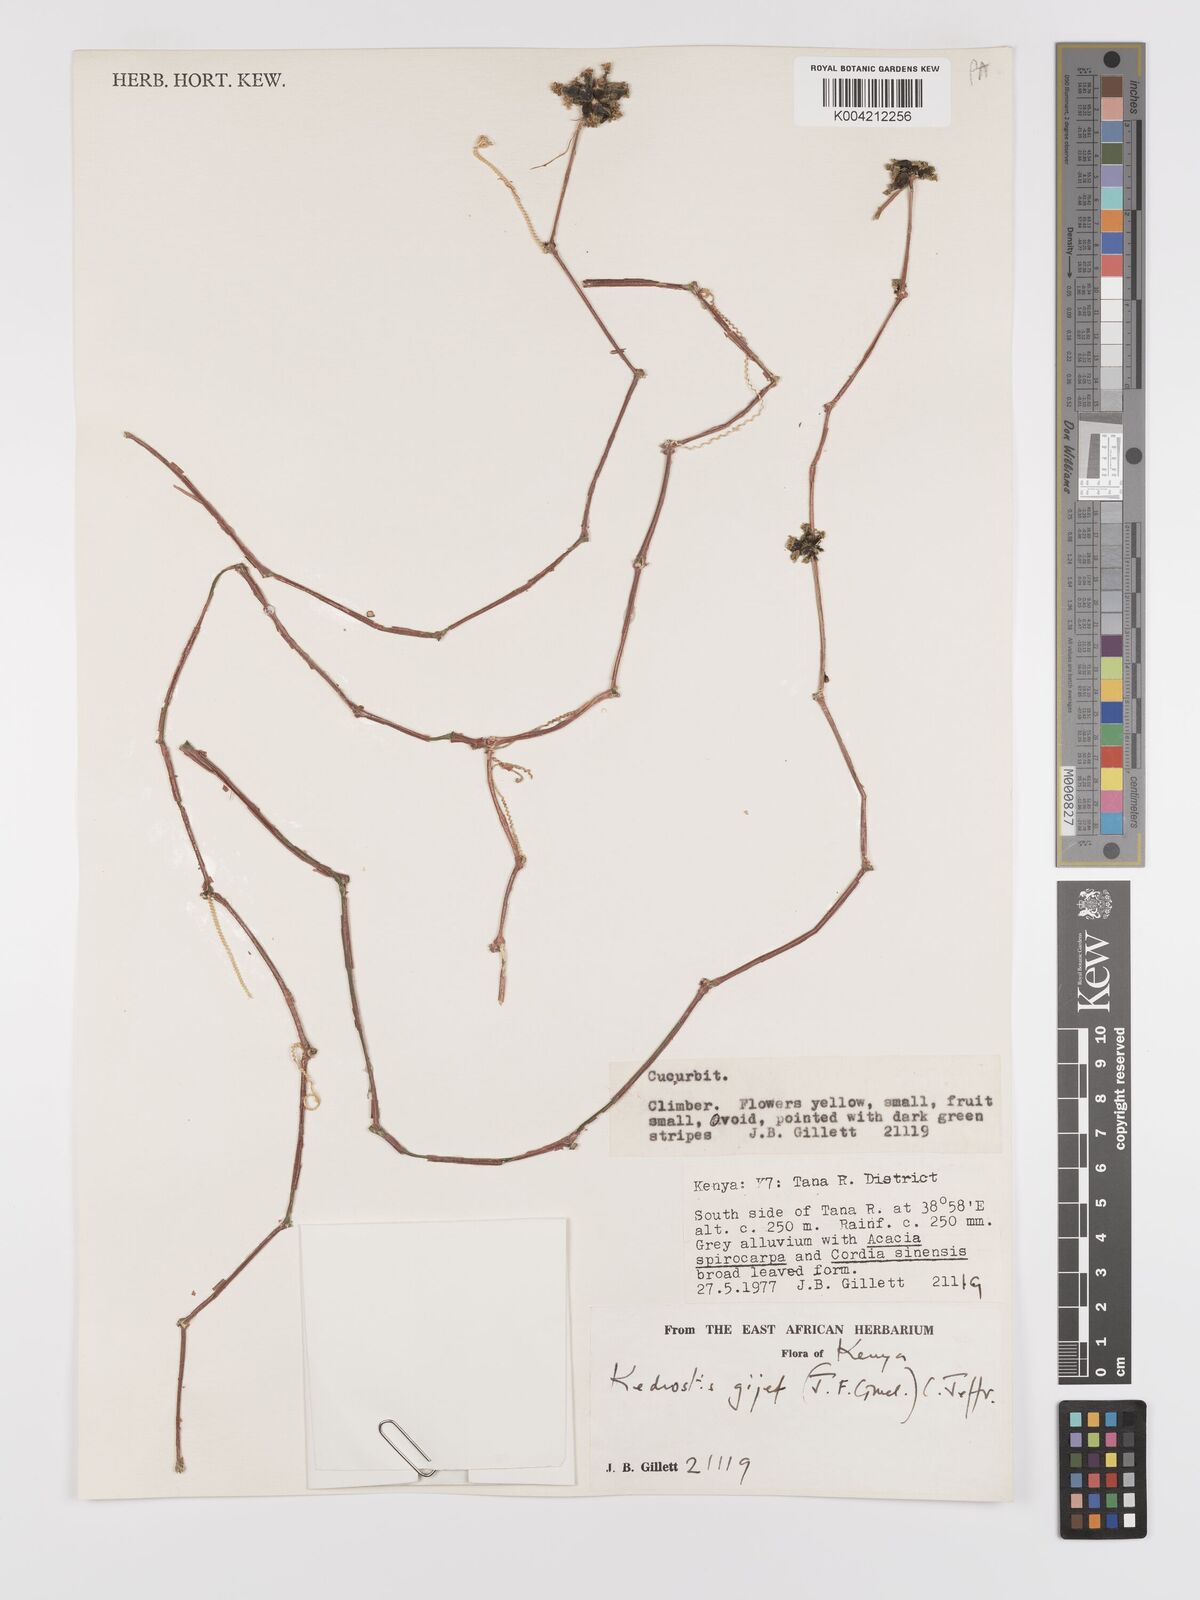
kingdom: Plantae
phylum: Tracheophyta
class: Magnoliopsida
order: Cucurbitales
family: Cucurbitaceae
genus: Kedrostis
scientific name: Kedrostis gijef
